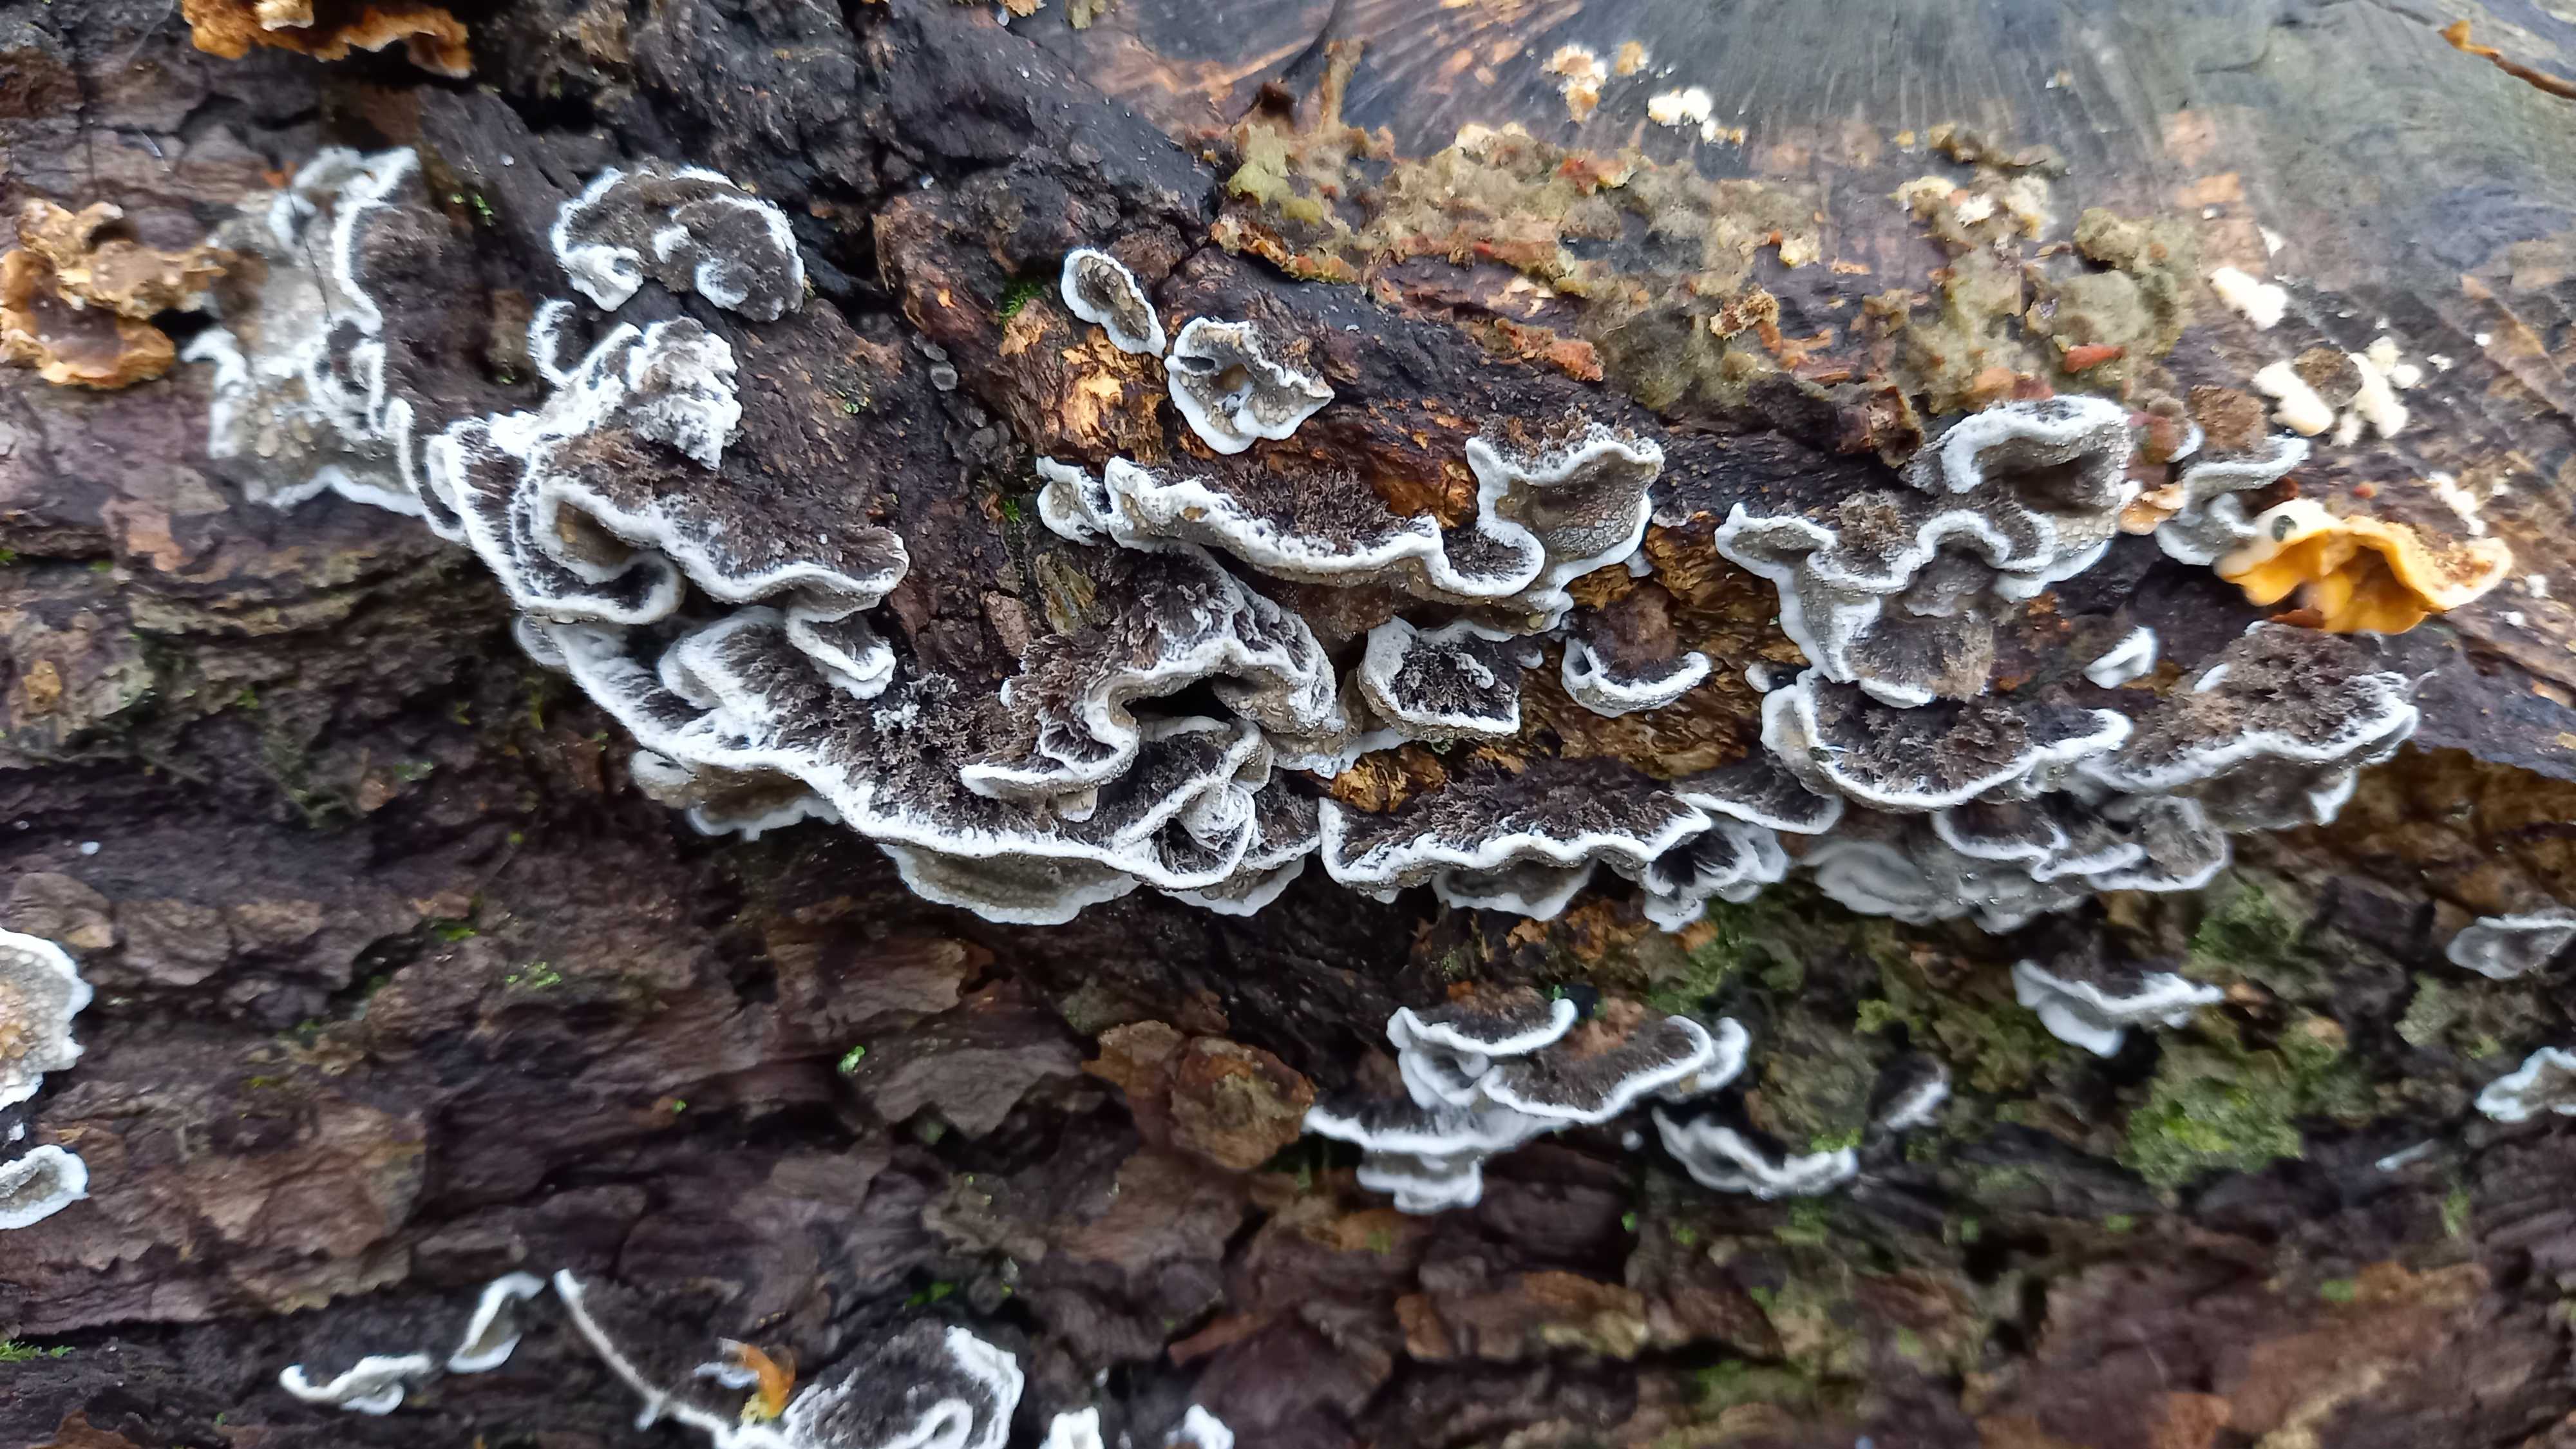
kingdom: Fungi
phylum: Basidiomycota
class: Agaricomycetes
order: Polyporales
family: Phanerochaetaceae
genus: Bjerkandera
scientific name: Bjerkandera adusta
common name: sveden sodporesvamp
